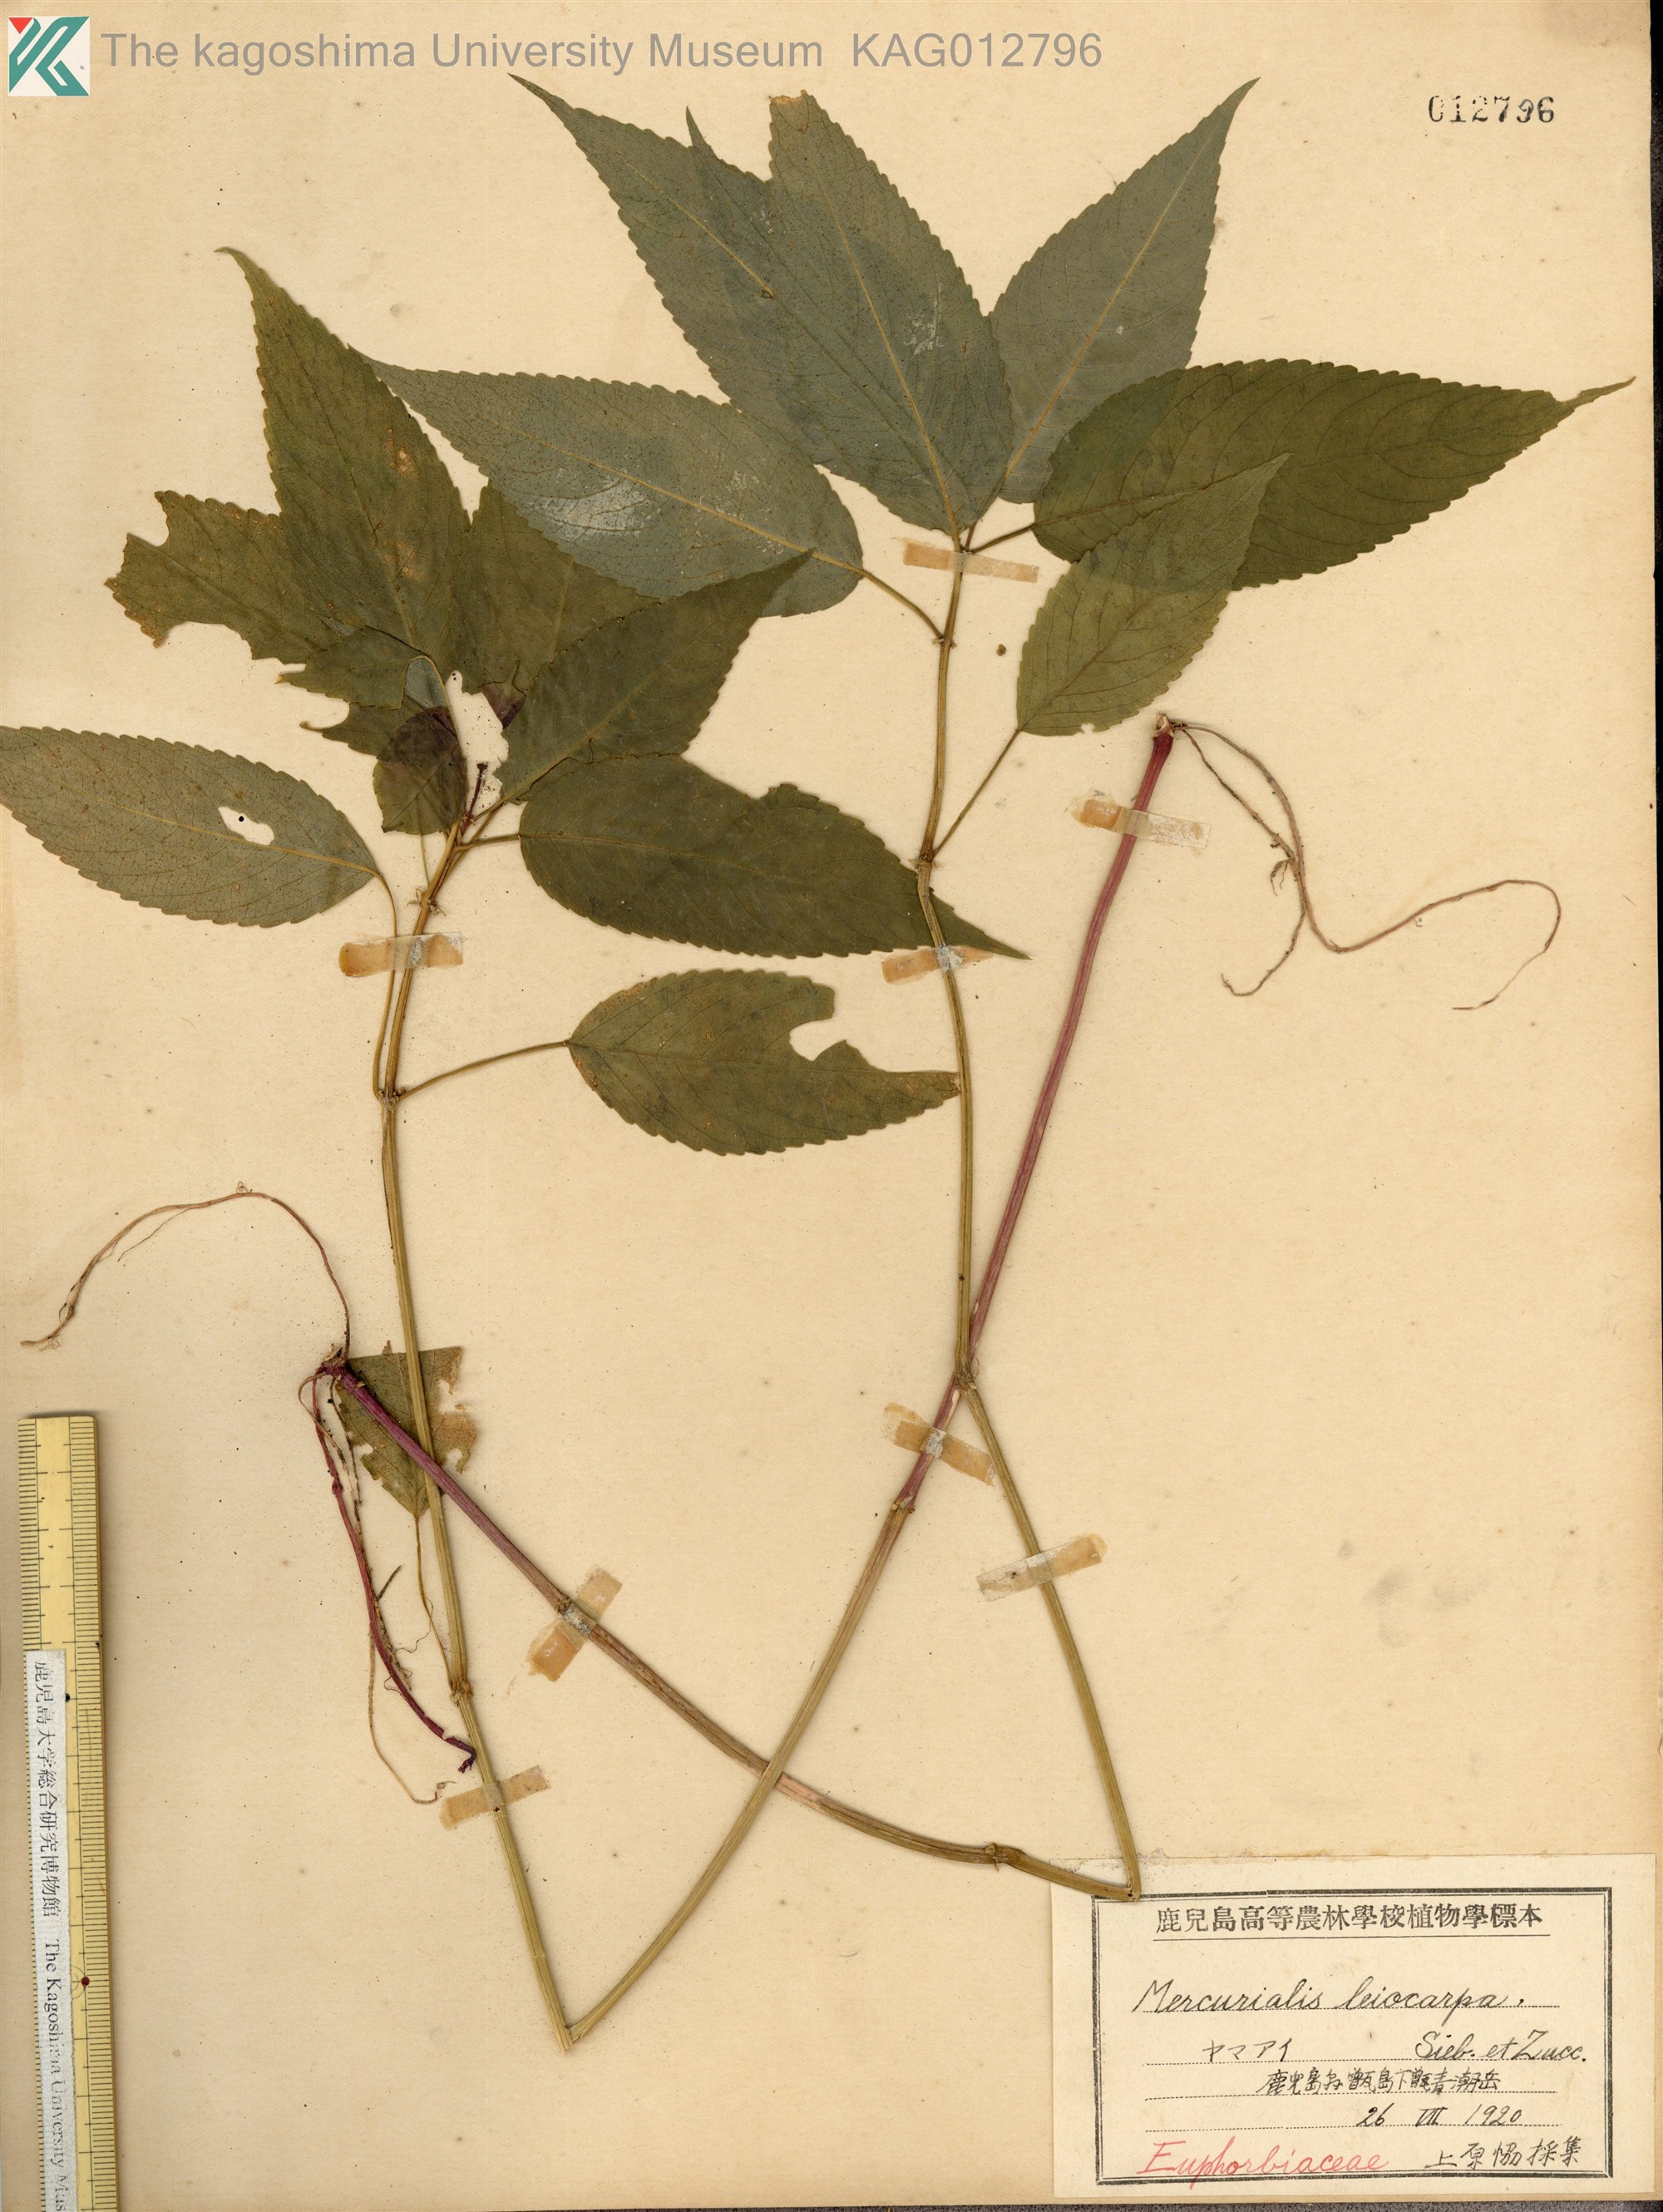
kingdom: Plantae
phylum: Tracheophyta
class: Magnoliopsida
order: Malpighiales
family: Euphorbiaceae
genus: Mercurialis
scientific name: Mercurialis leiocarpa
